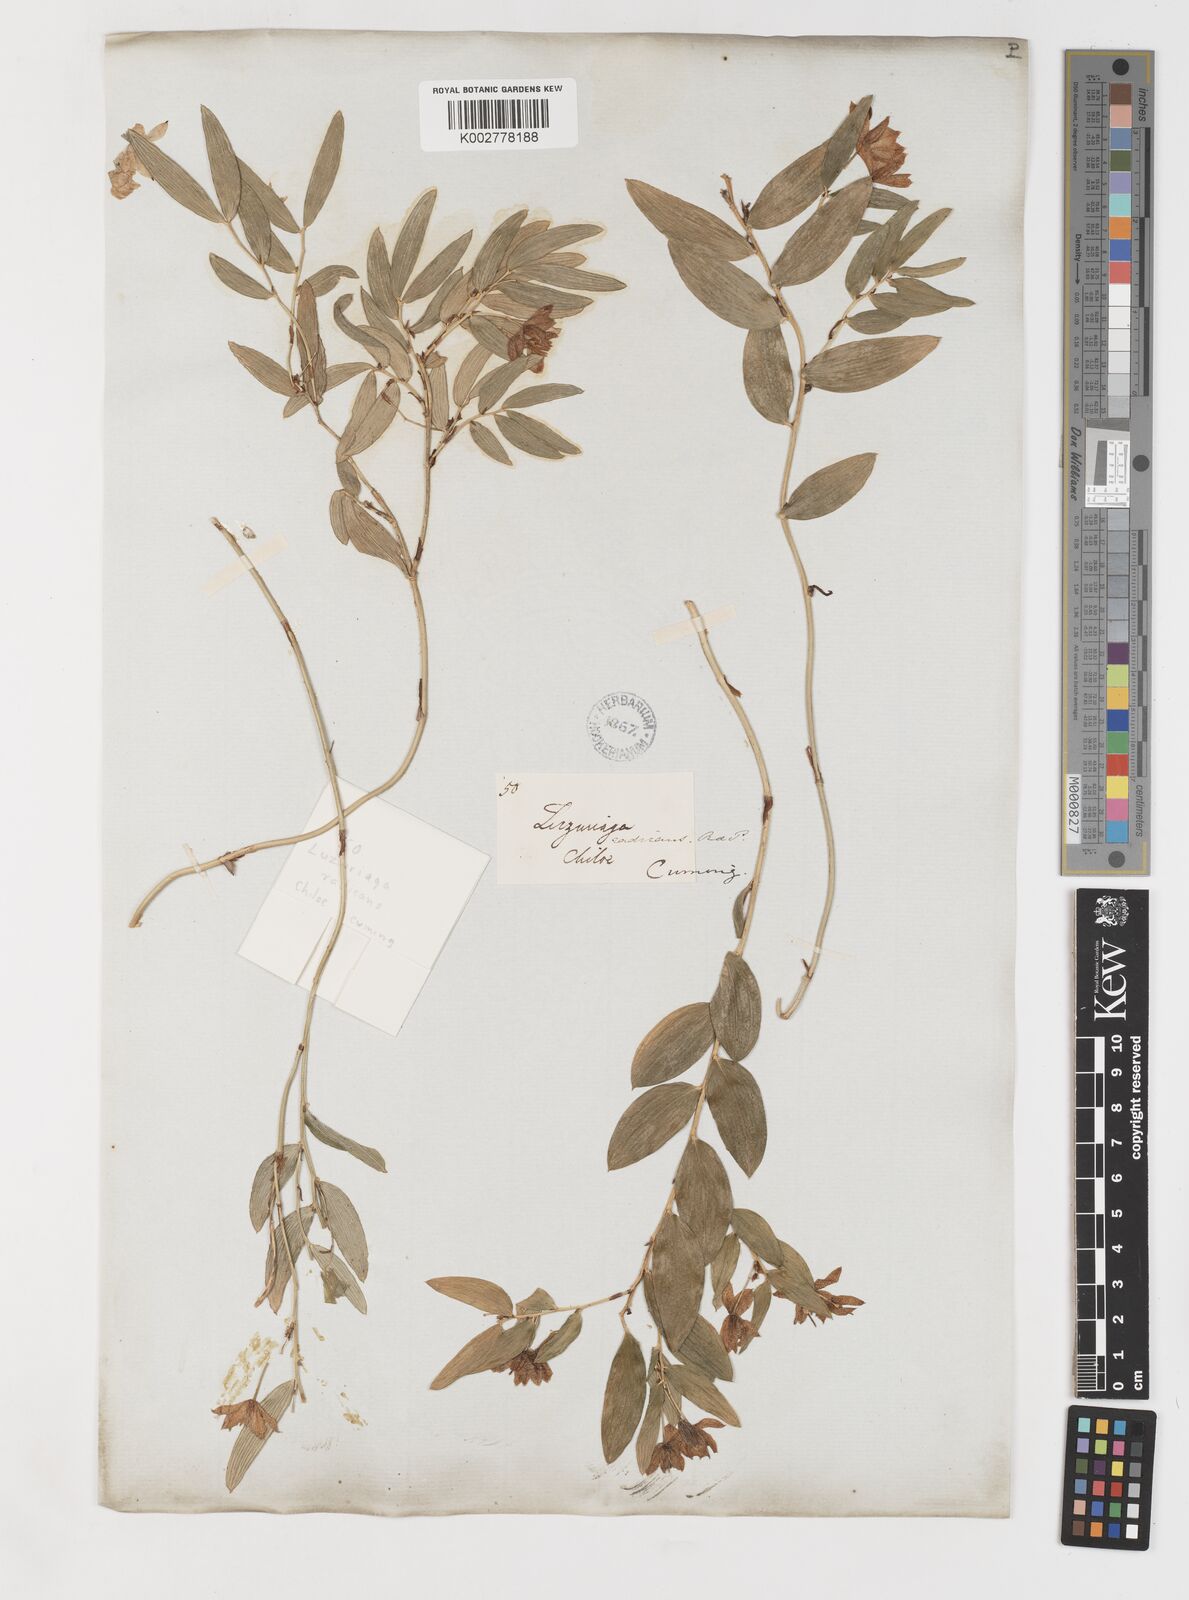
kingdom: Plantae
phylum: Tracheophyta
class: Liliopsida
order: Liliales
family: Alstroemeriaceae
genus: Luzuriaga
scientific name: Luzuriaga radicans
